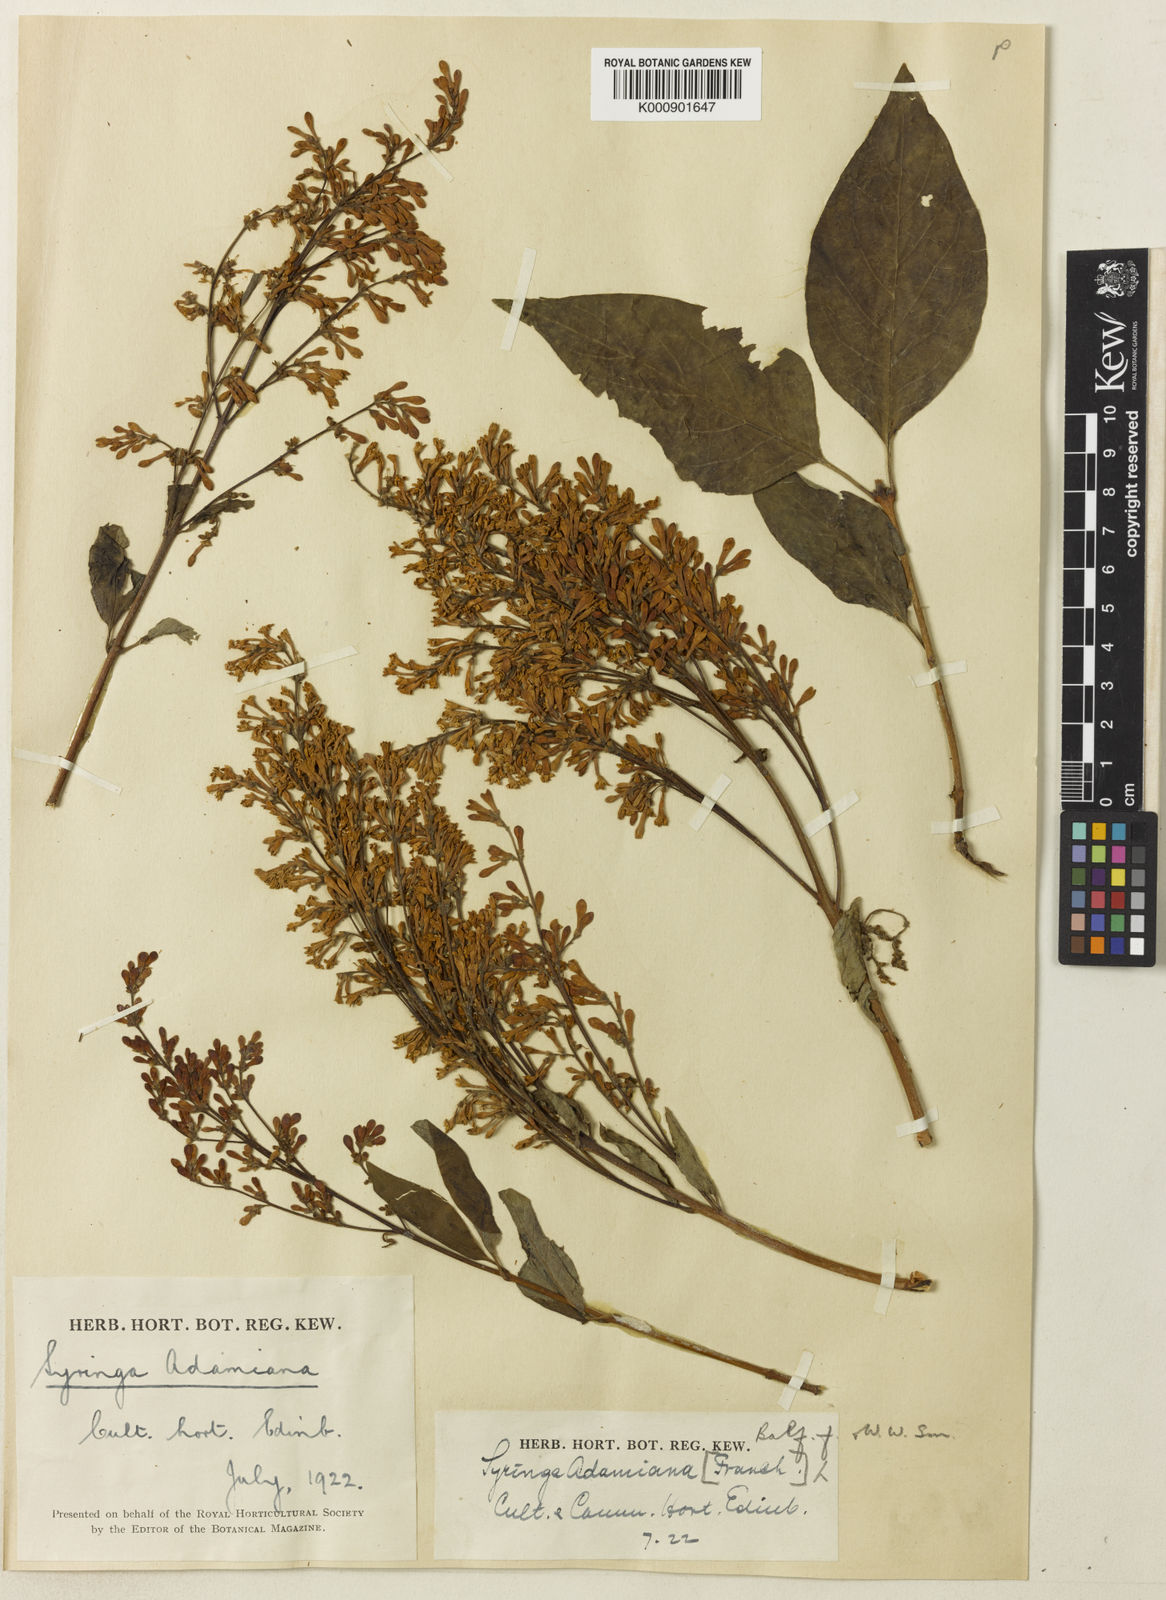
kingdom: Plantae
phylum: Tracheophyta
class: Magnoliopsida
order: Lamiales
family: Oleaceae
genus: Syringa
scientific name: Syringa tomentella
